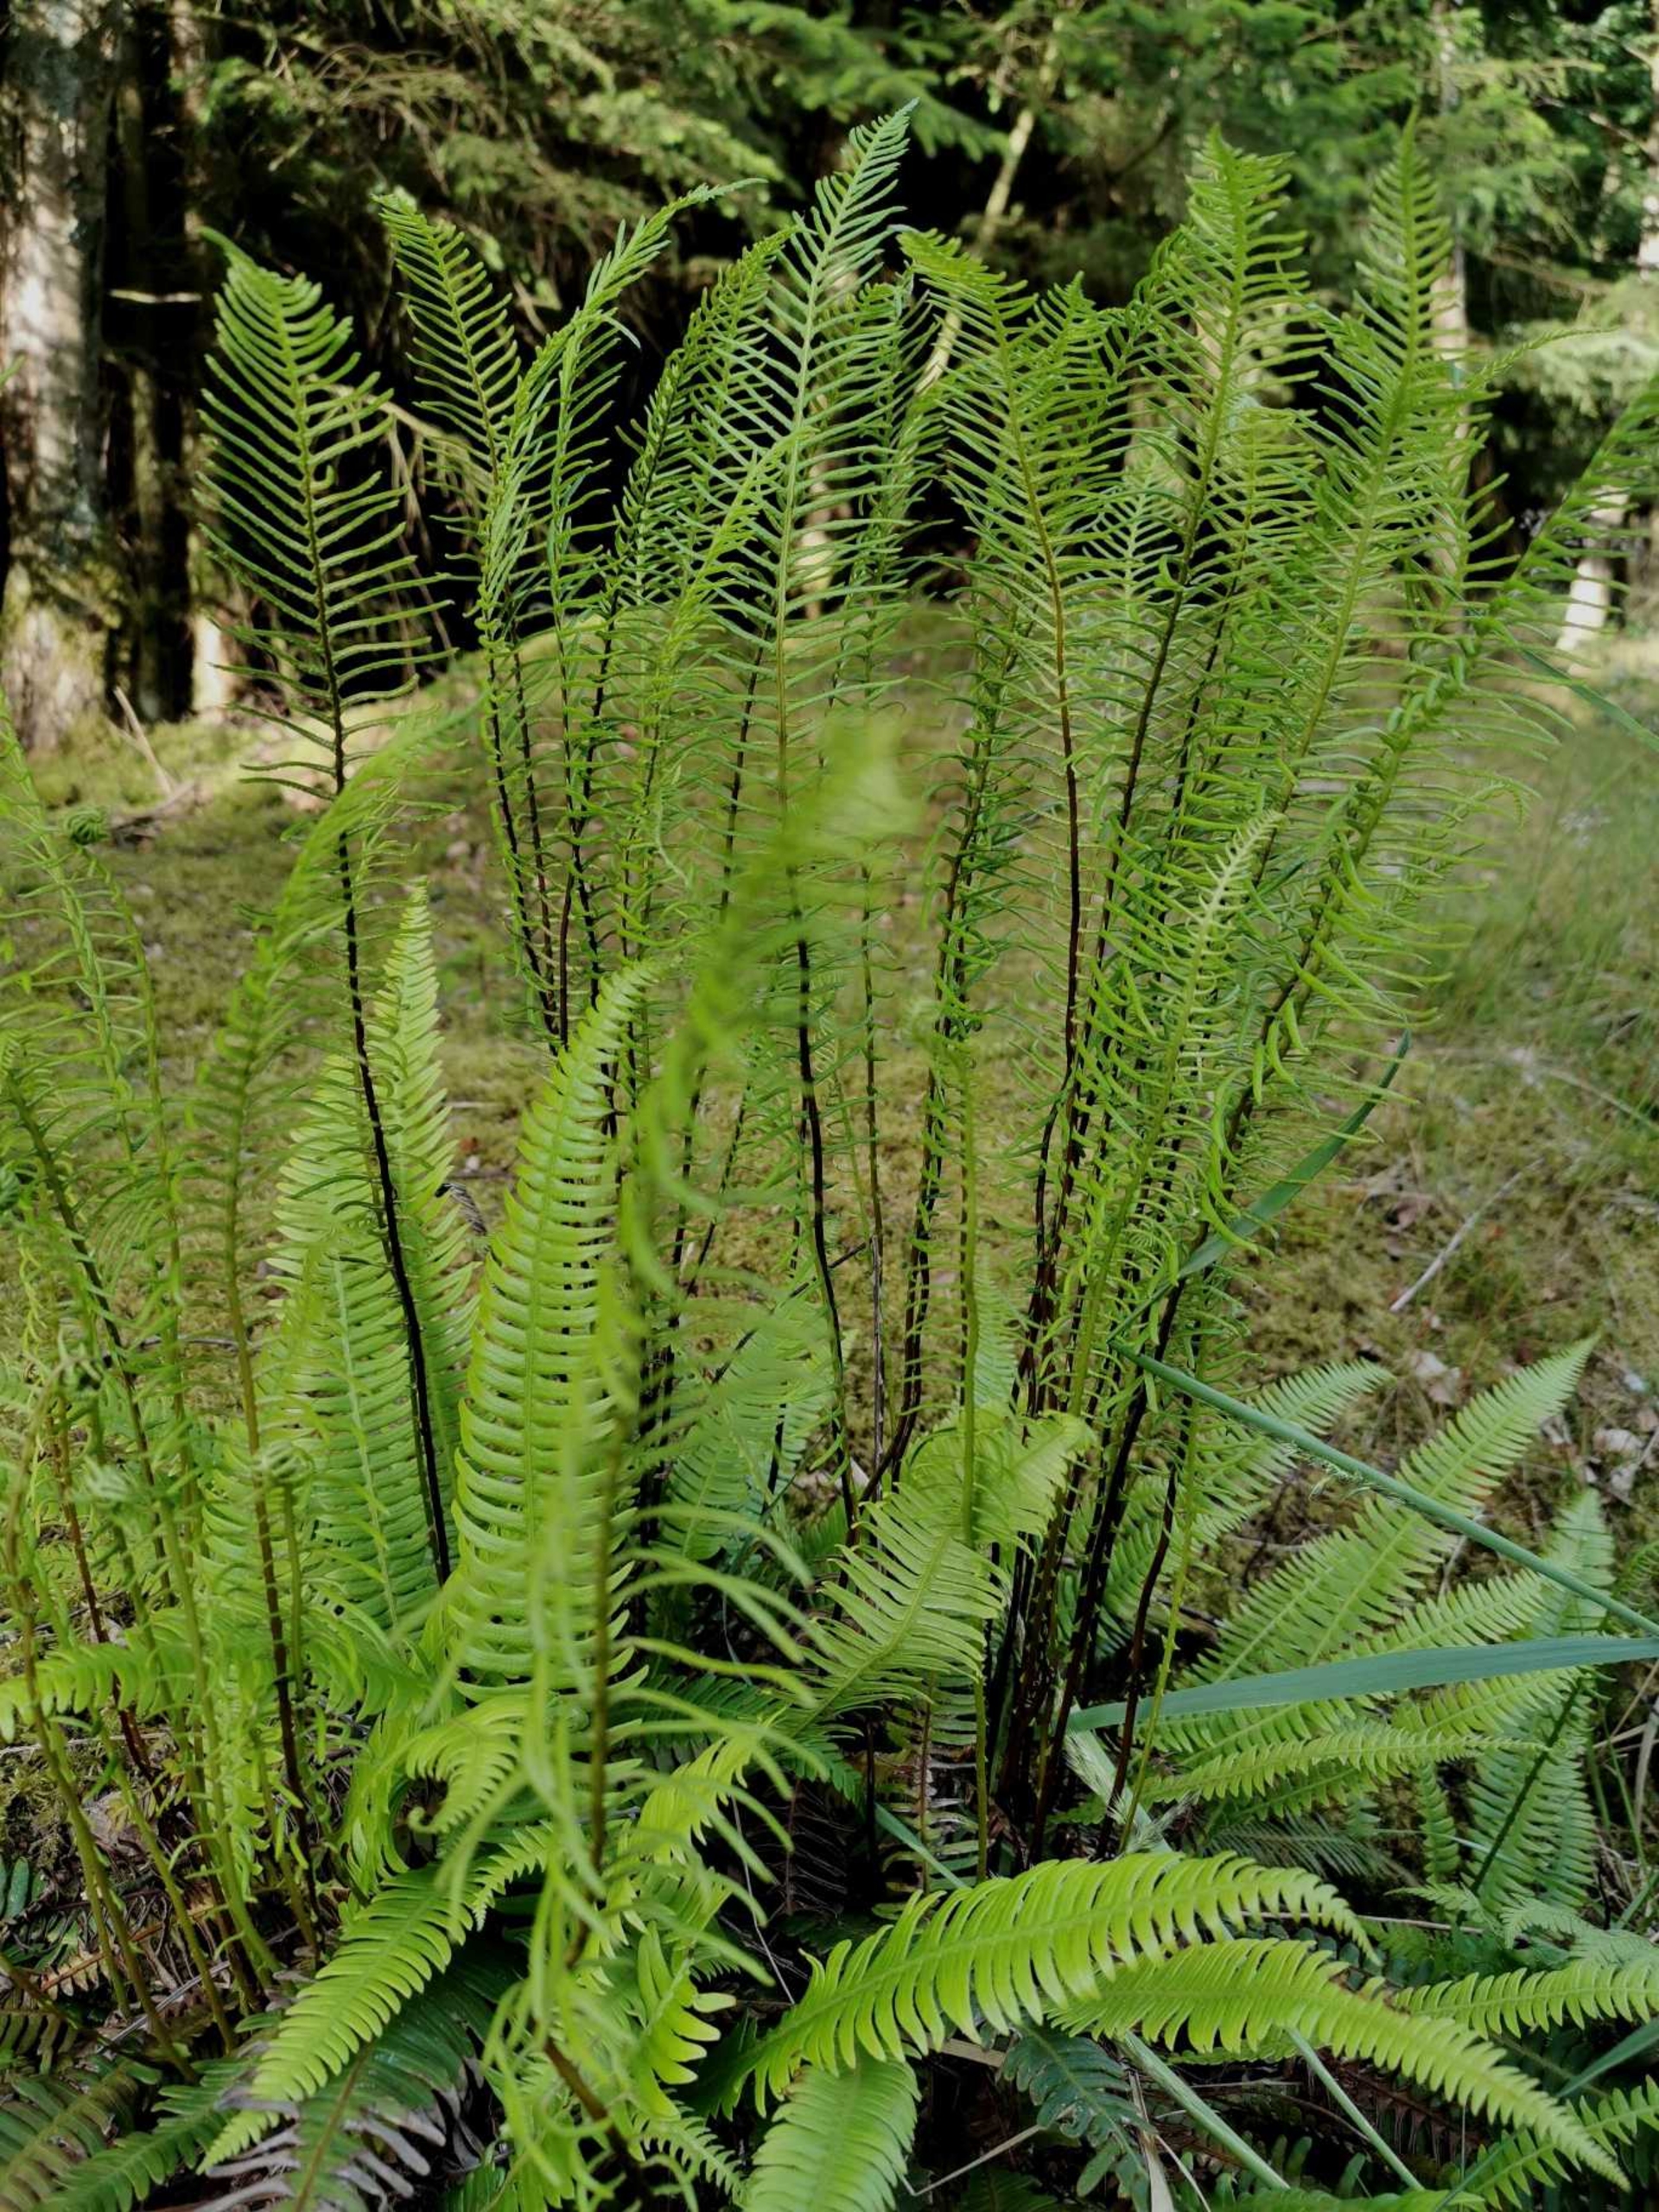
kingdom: Plantae
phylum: Tracheophyta
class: Polypodiopsida
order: Polypodiales
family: Blechnaceae
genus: Struthiopteris
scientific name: Struthiopteris spicant
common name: Kambregne
